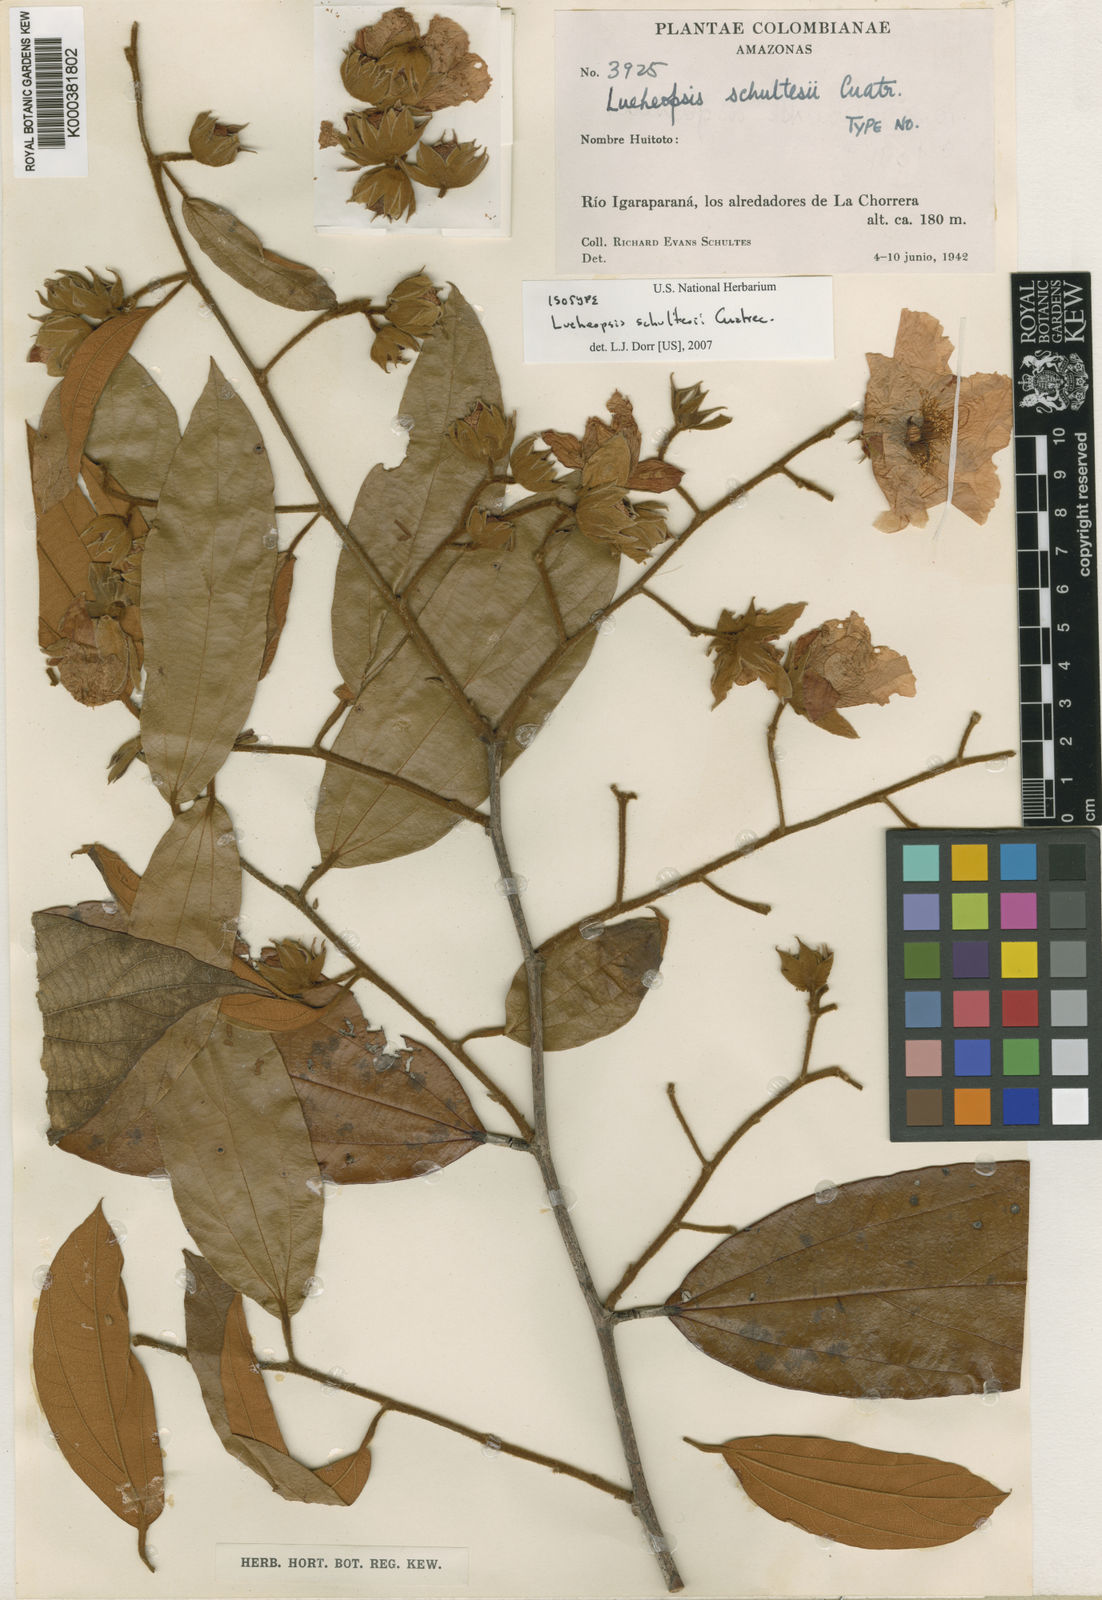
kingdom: Plantae
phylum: Tracheophyta
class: Magnoliopsida
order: Malvales
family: Malvaceae
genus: Lueheopsis
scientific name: Lueheopsis althaeiflora
